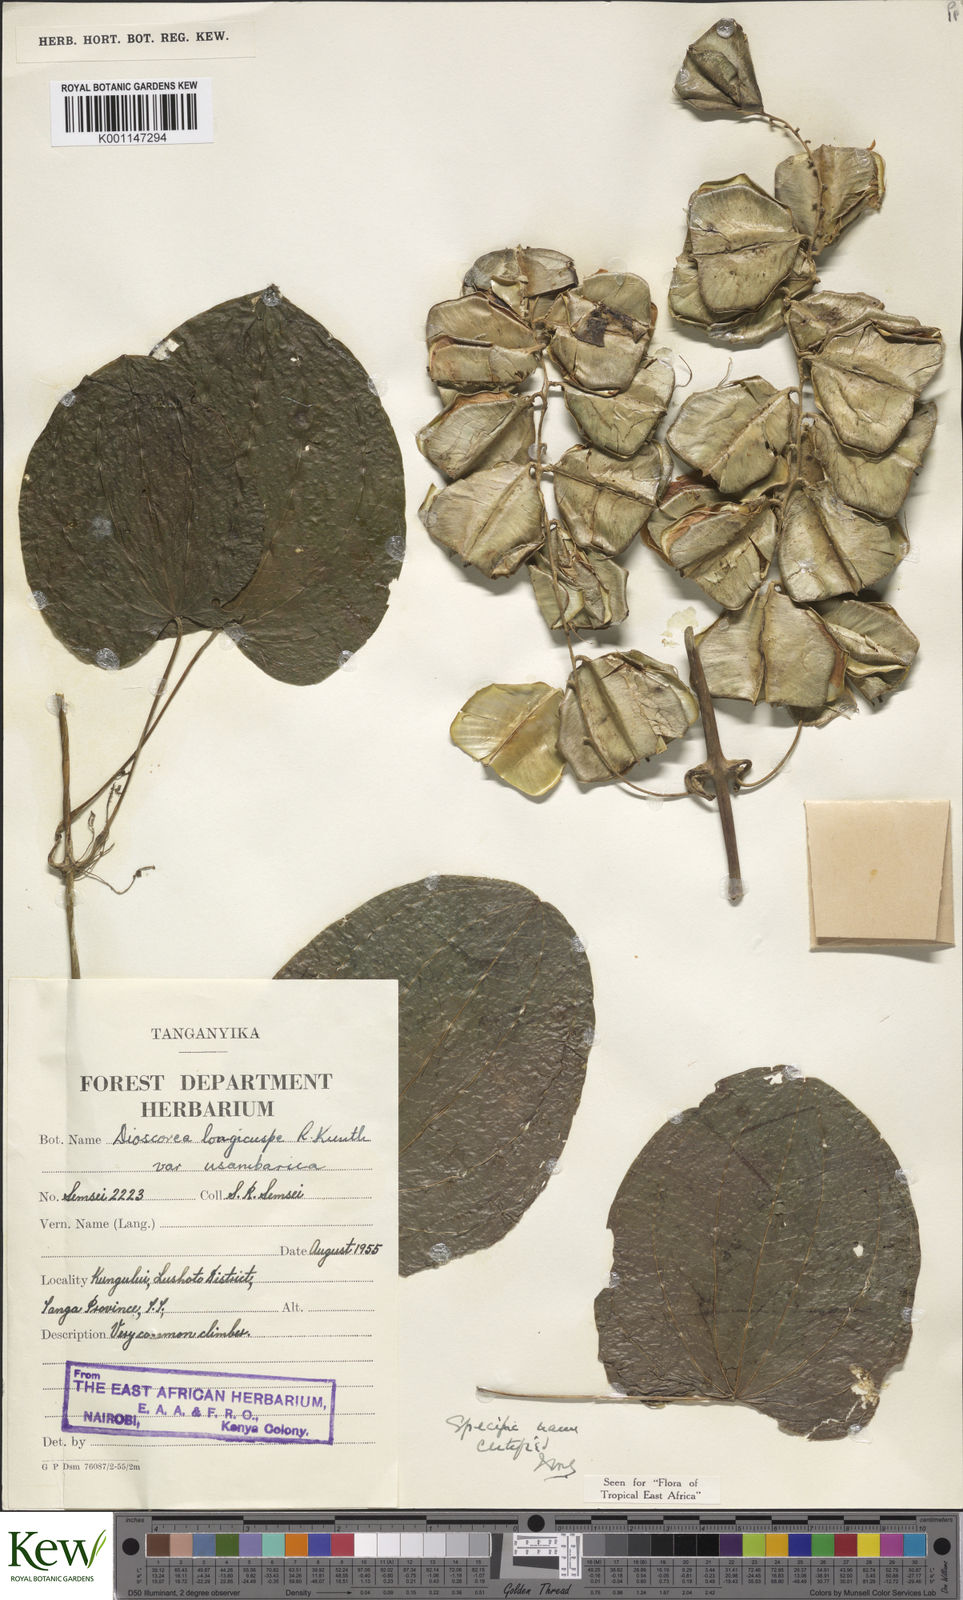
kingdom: Plantae
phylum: Tracheophyta
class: Liliopsida
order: Dioscoreales
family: Dioscoreaceae
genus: Dioscorea
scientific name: Dioscorea longicuspis
